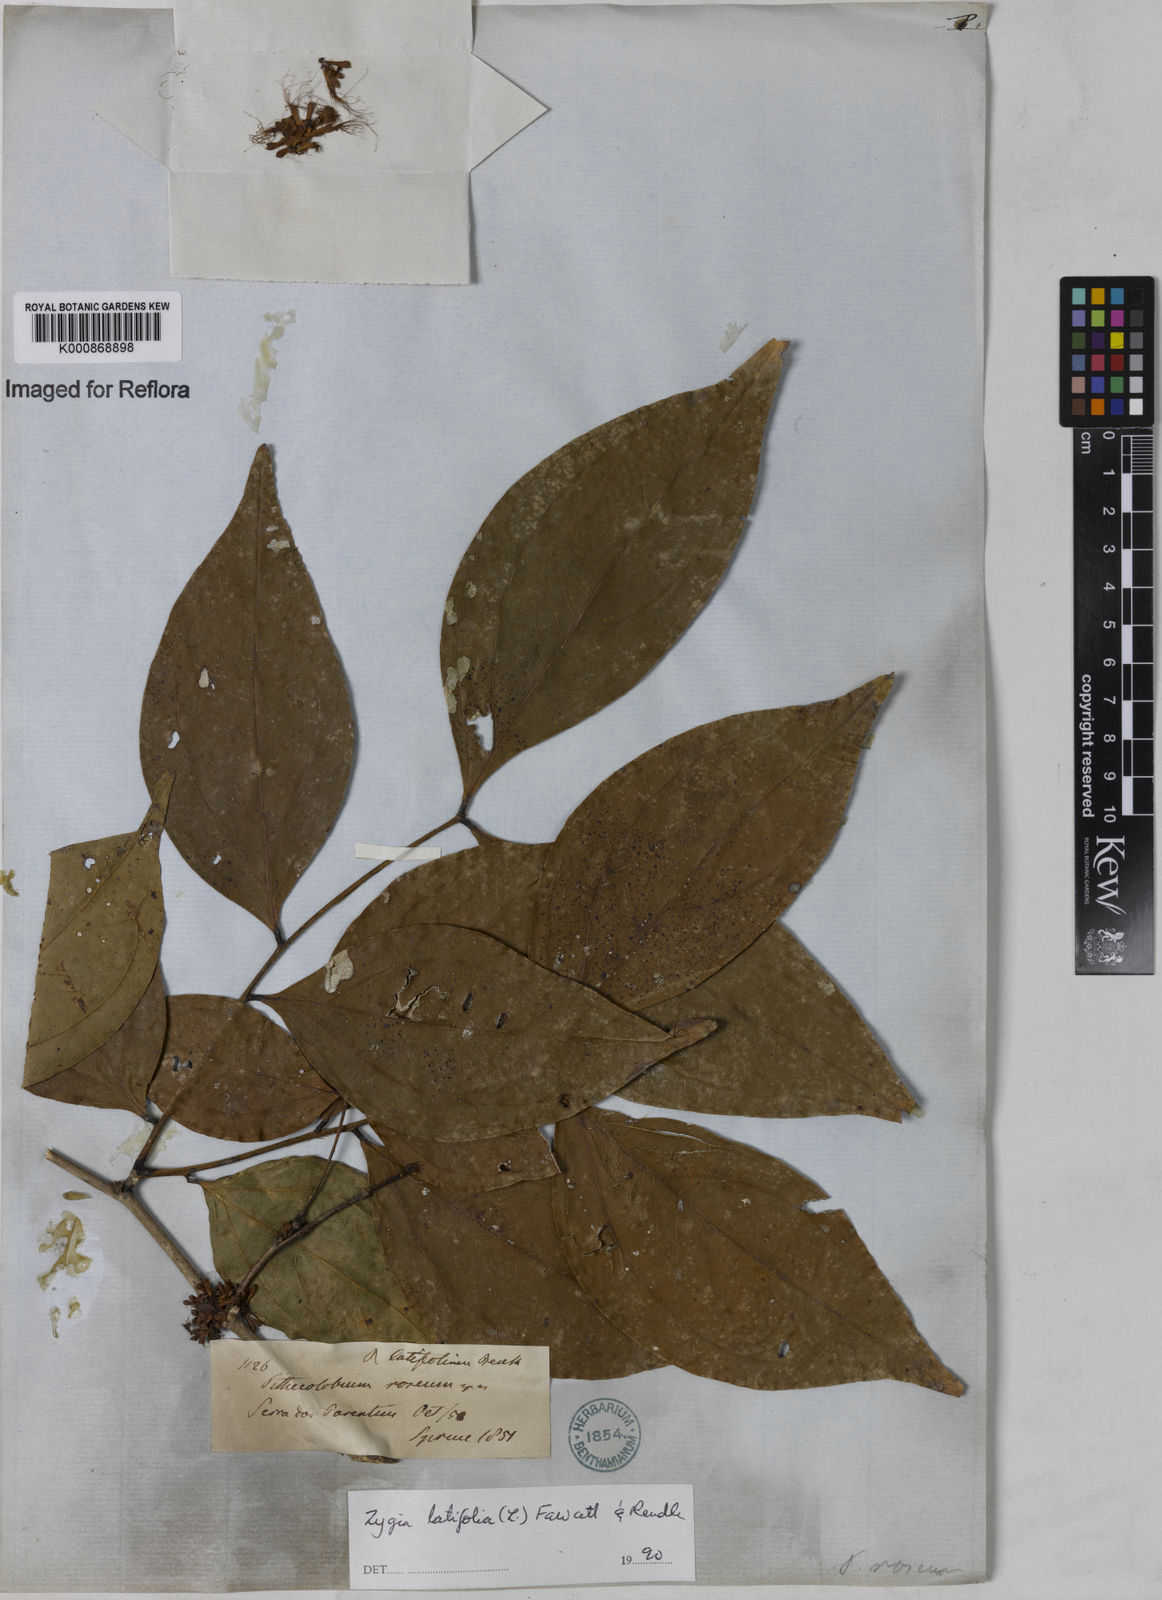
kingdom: Plantae
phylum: Tracheophyta
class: Magnoliopsida
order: Fabales
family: Fabaceae
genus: Zygia
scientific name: Zygia latifolia
